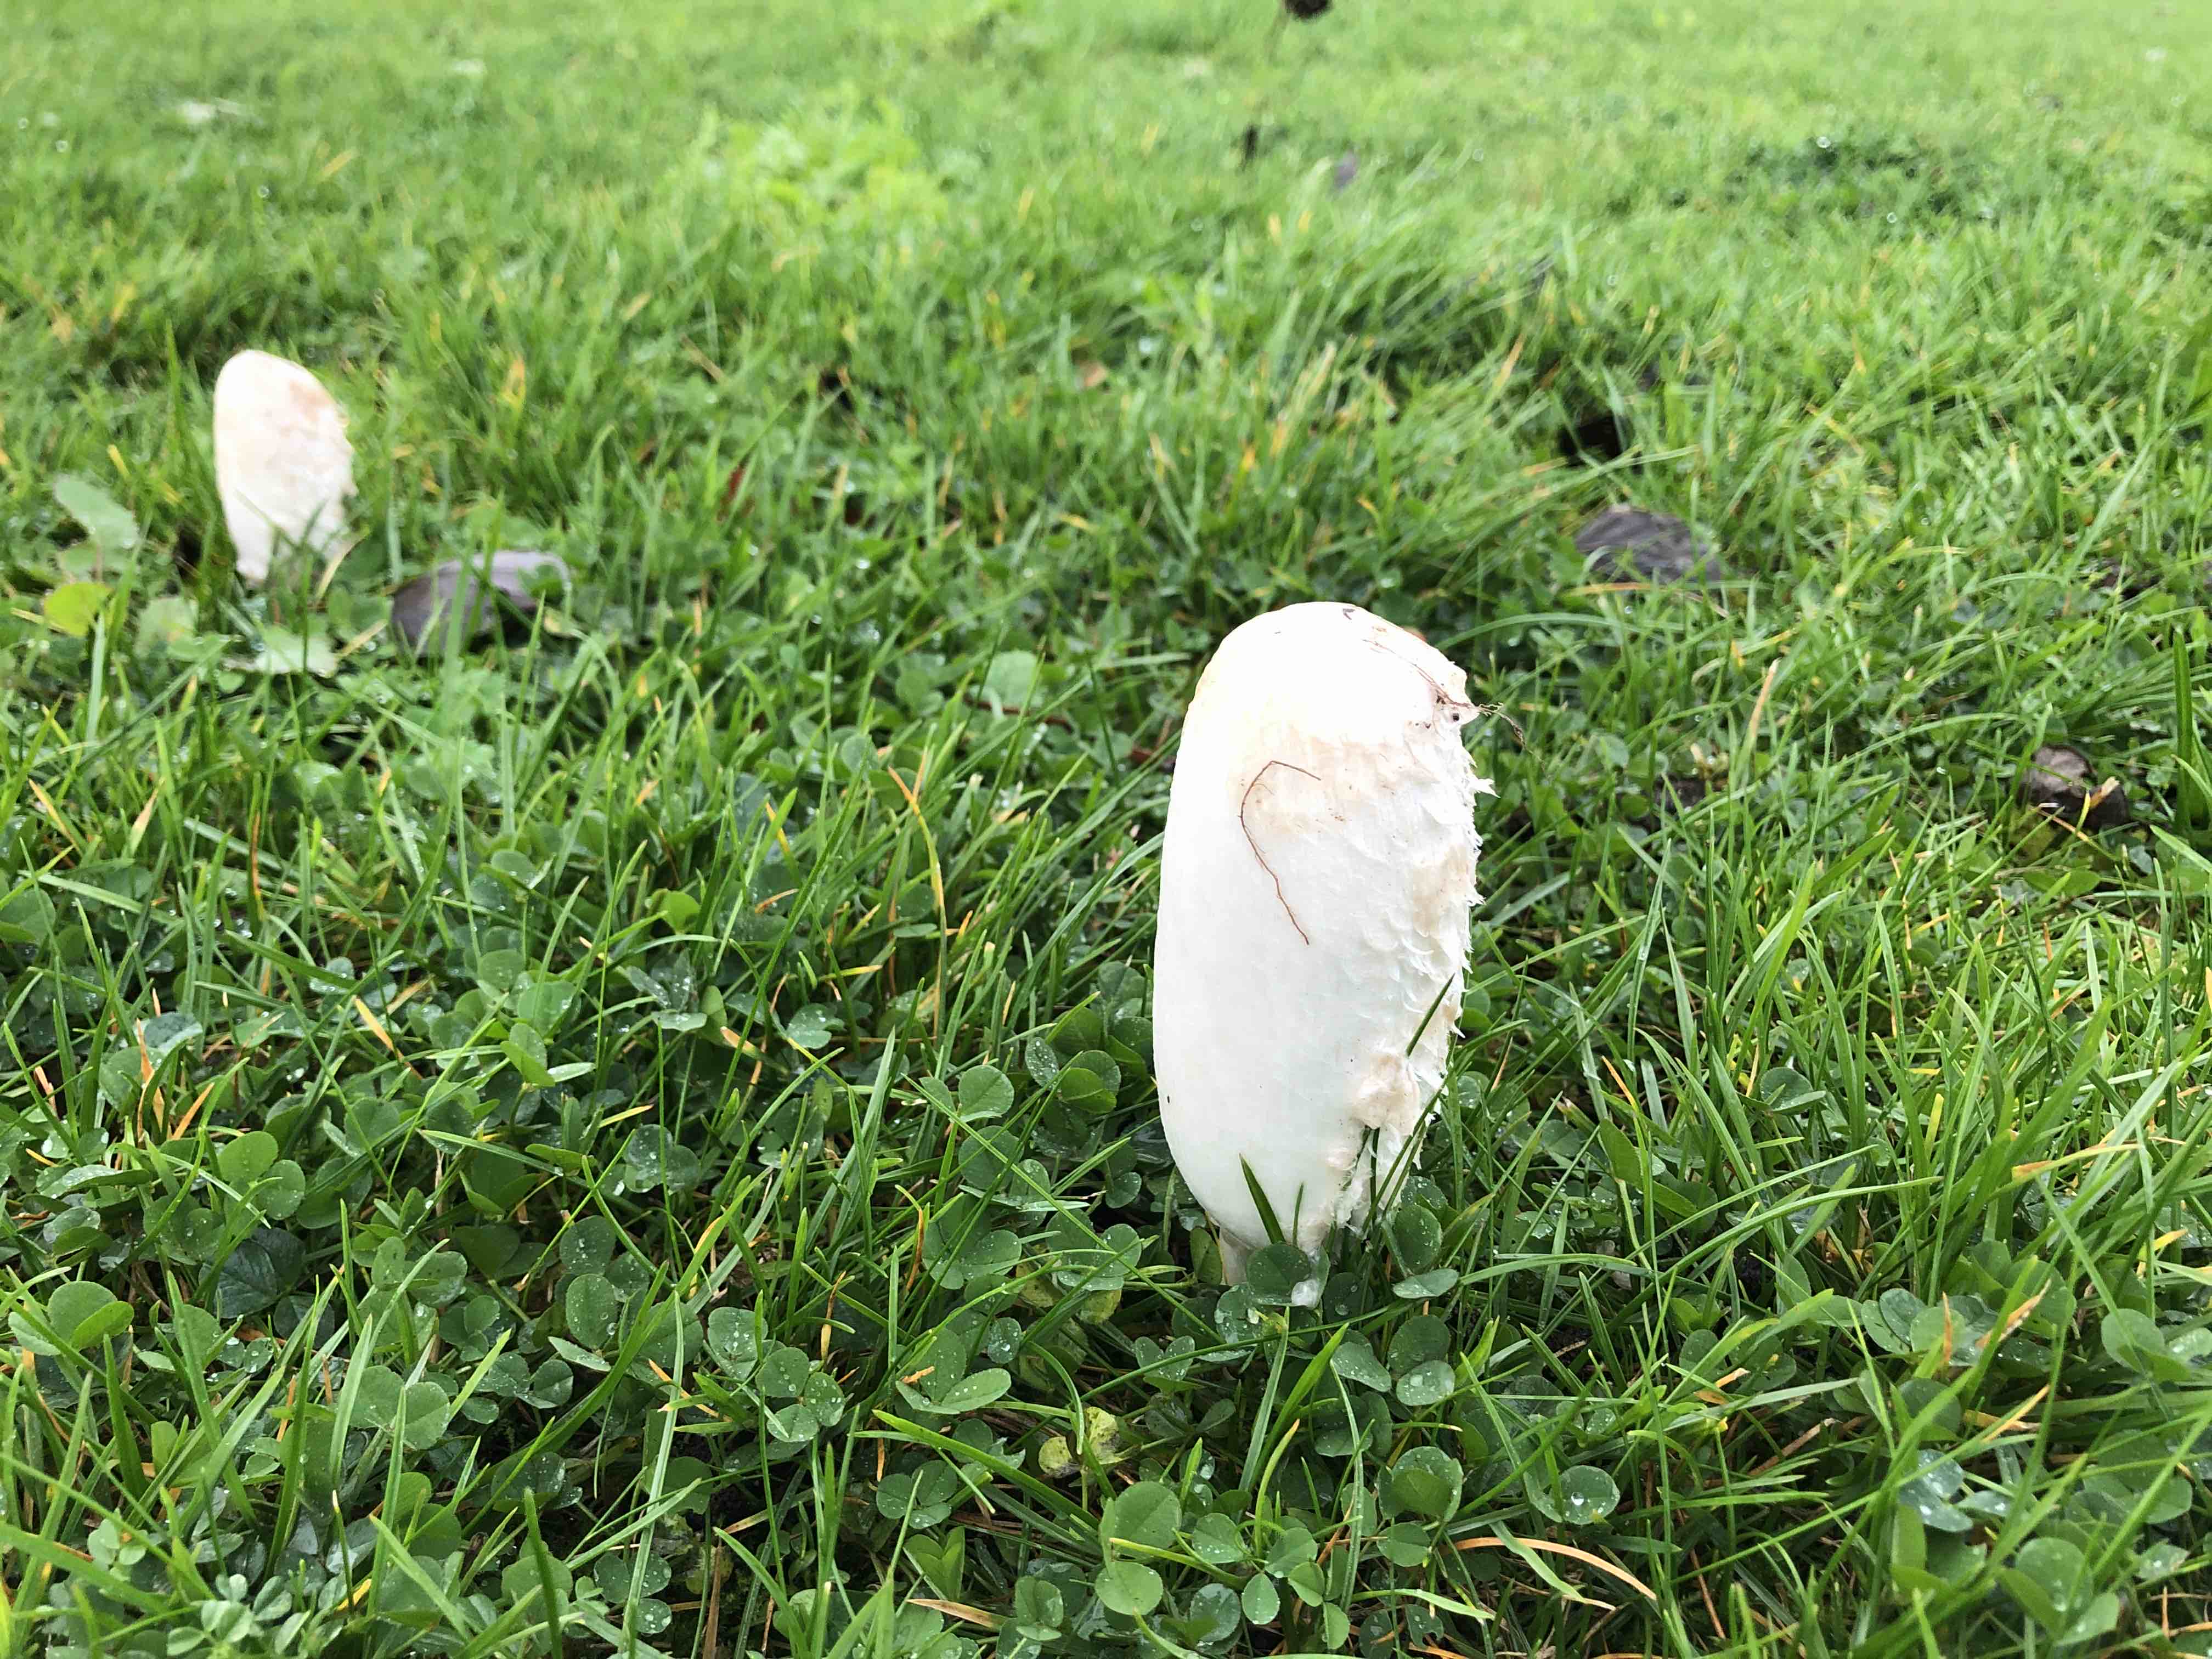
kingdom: Fungi
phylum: Basidiomycota
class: Agaricomycetes
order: Agaricales
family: Agaricaceae
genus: Coprinus
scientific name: Coprinus comatus
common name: stor parykhat
